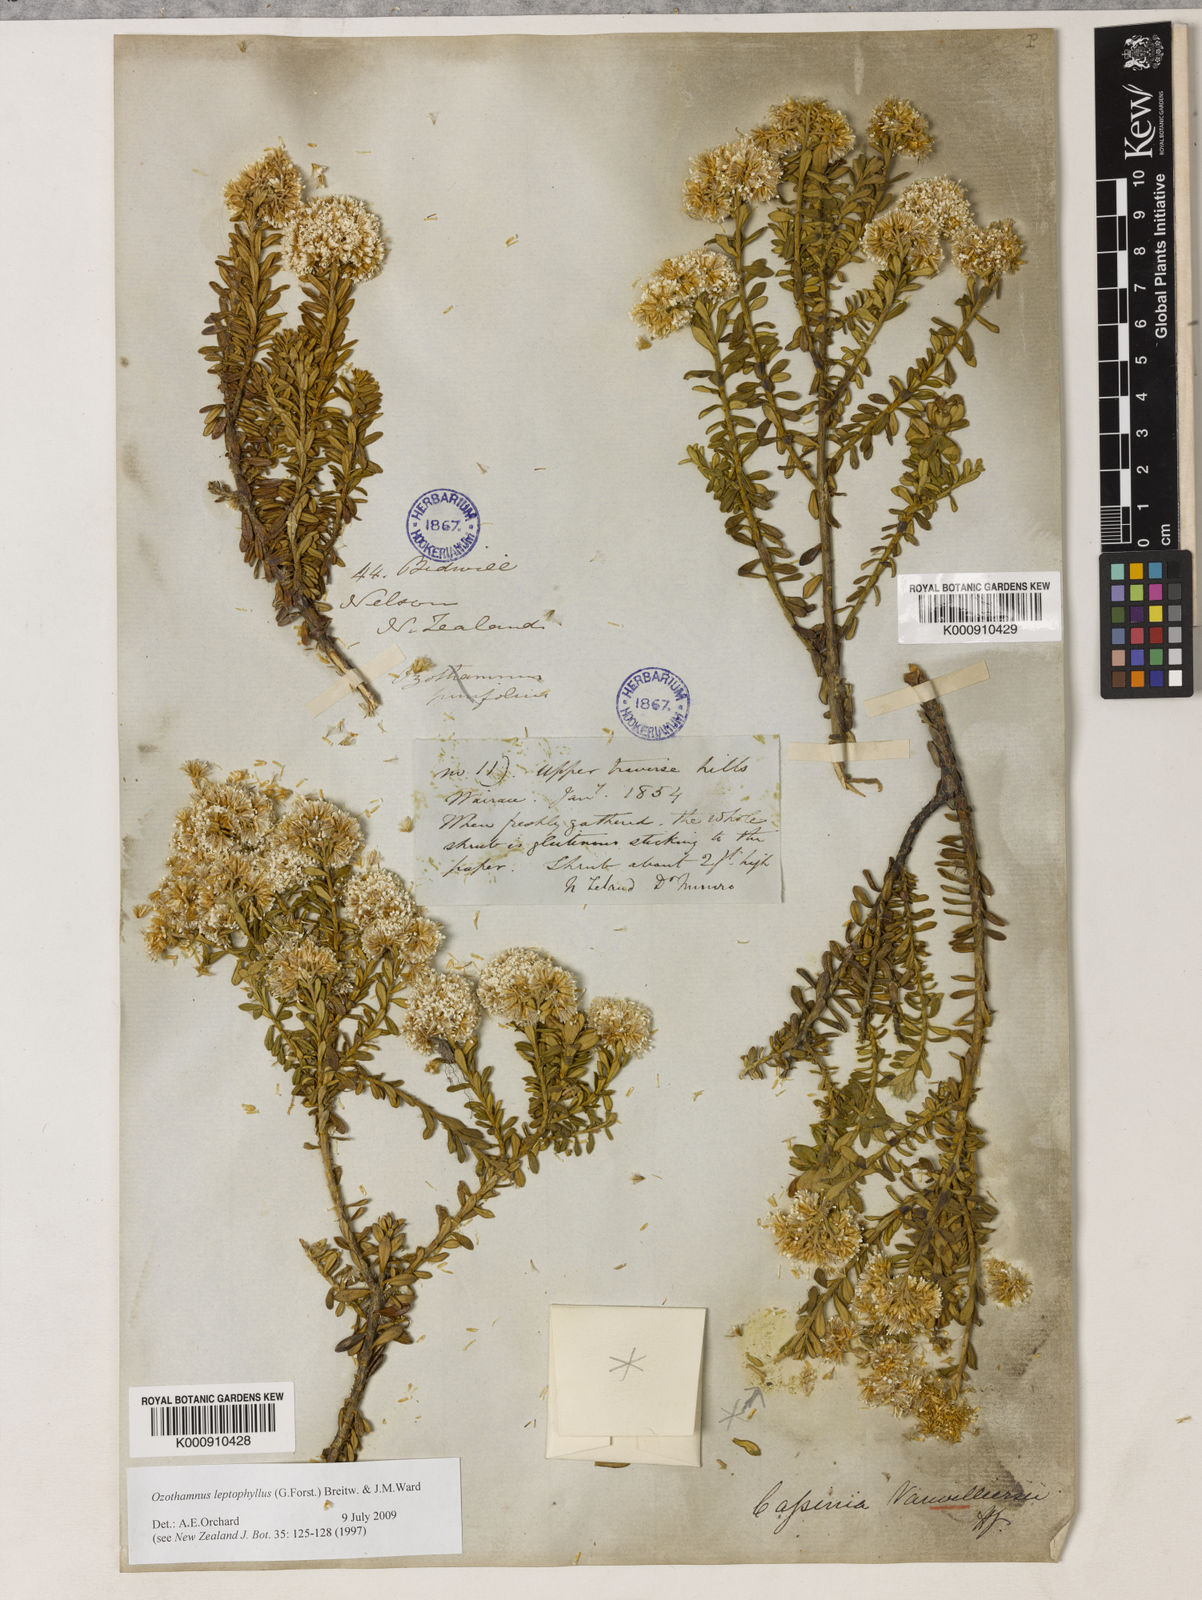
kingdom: Plantae
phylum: Tracheophyta
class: Magnoliopsida
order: Asterales
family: Asteraceae
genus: Ozothamnus
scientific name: Ozothamnus leptophyllus
